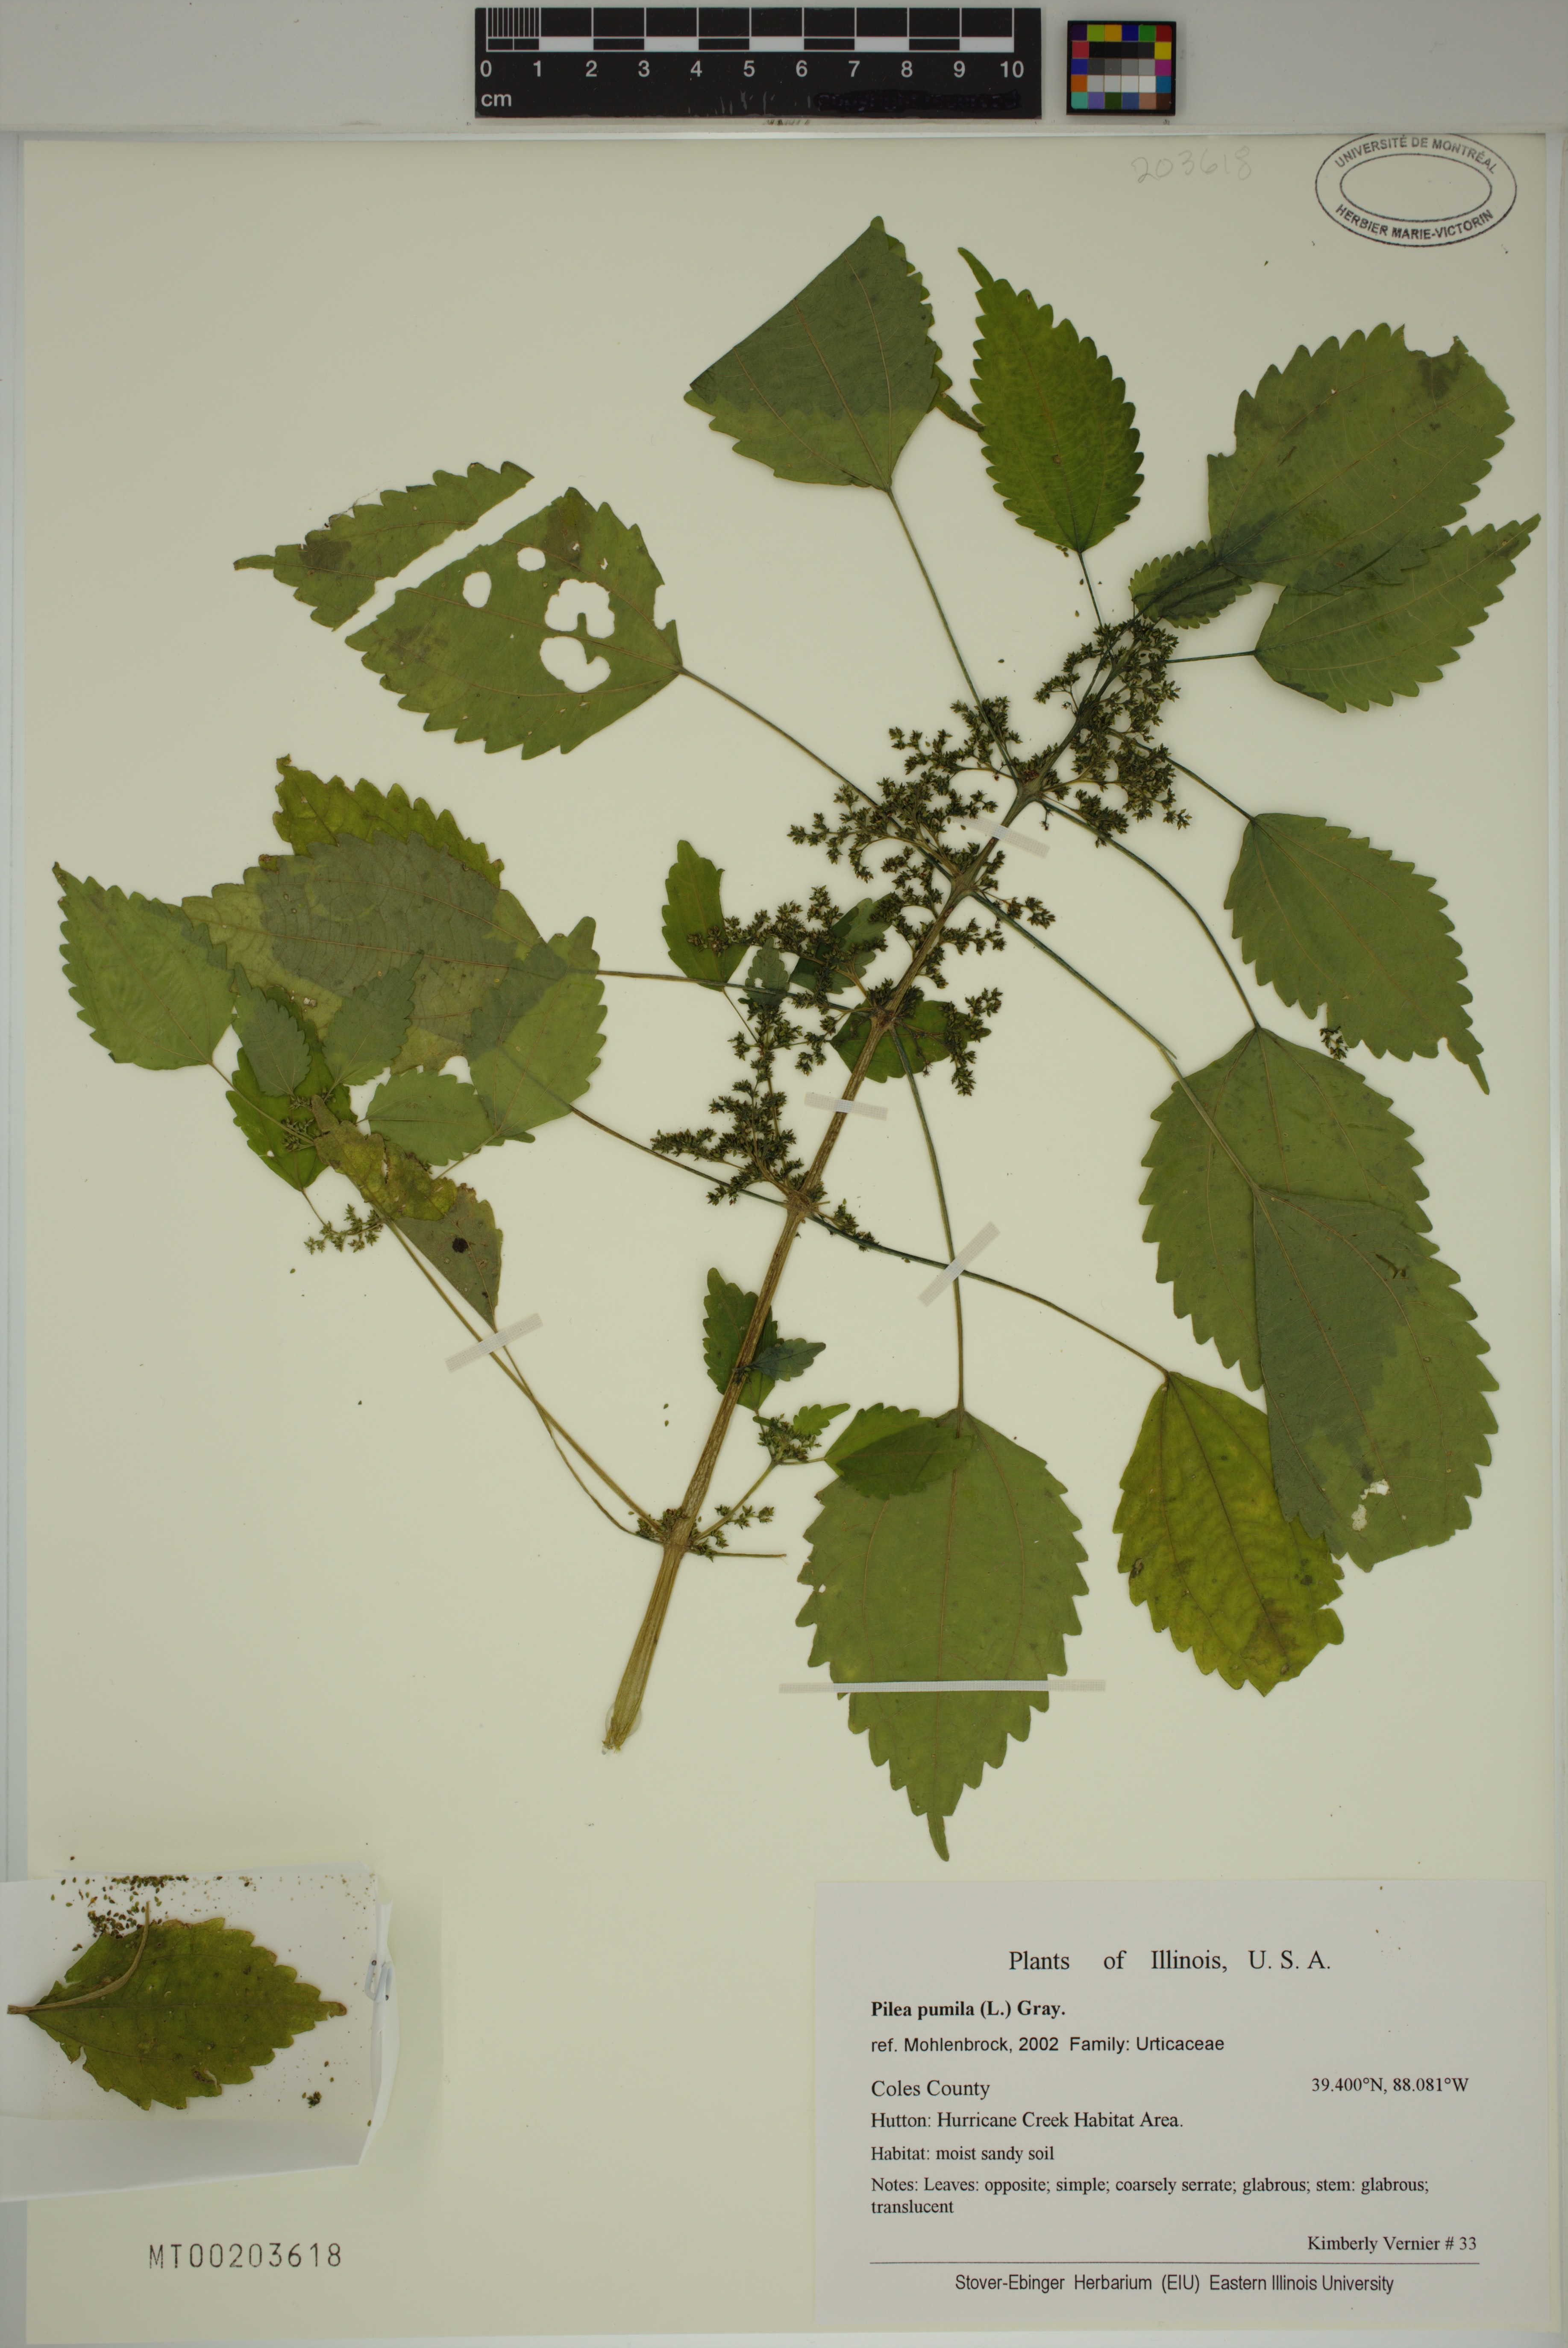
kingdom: Plantae
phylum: Tracheophyta
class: Magnoliopsida
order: Rosales
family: Urticaceae
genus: Pilea
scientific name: Pilea pumila
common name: Clearweed
